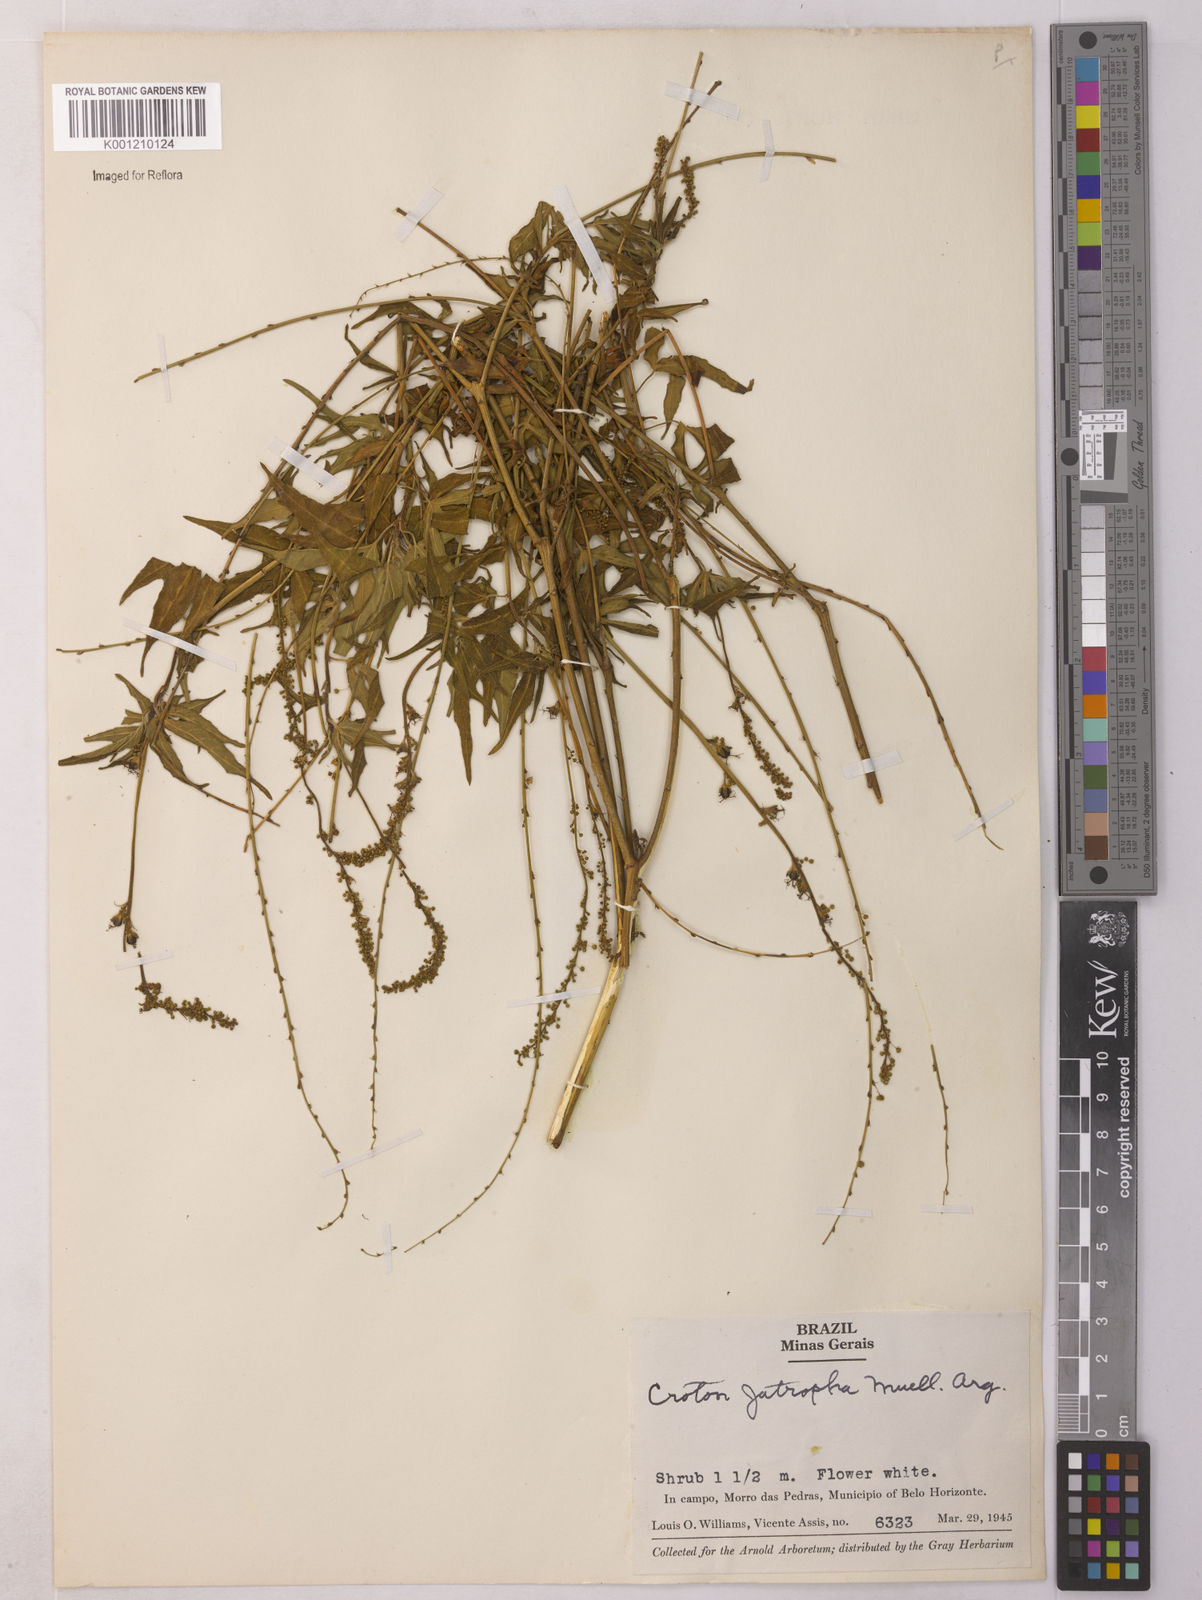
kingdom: Plantae
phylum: Tracheophyta
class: Magnoliopsida
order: Malpighiales
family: Euphorbiaceae
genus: Astraea
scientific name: Astraea
